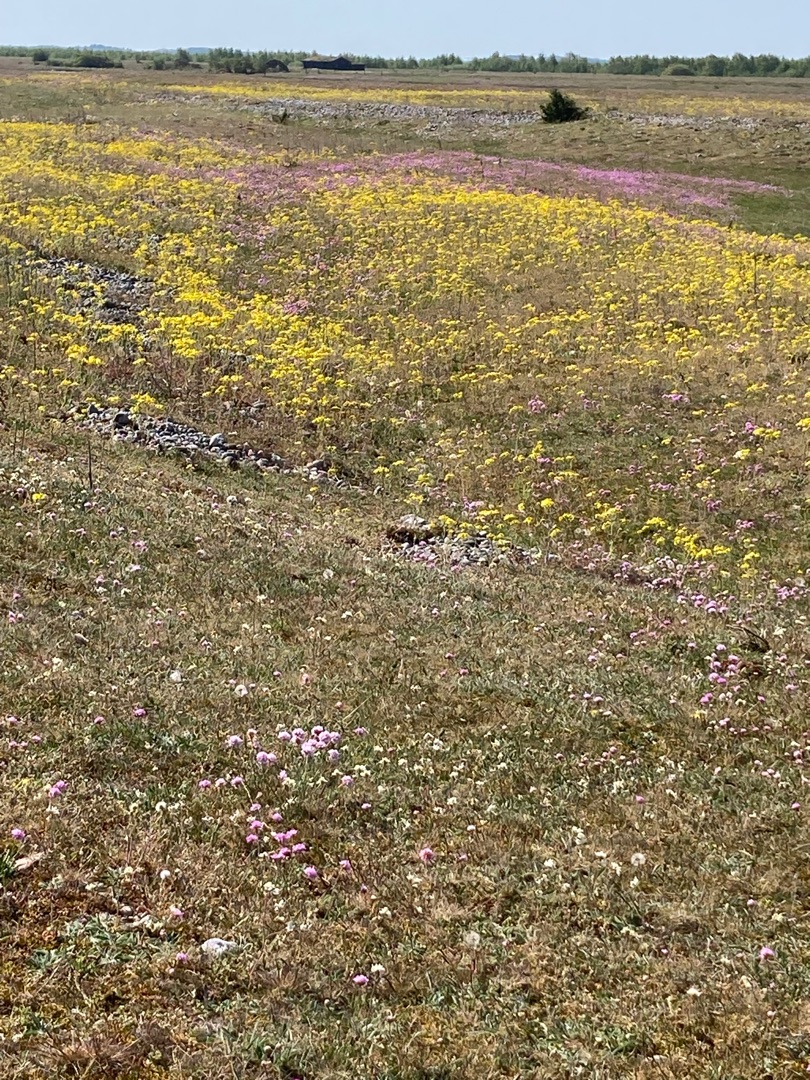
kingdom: Plantae
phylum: Tracheophyta
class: Magnoliopsida
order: Asterales
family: Asteraceae
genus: Senecio
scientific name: Senecio leucanthemifolius
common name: Vår-brandbæger
